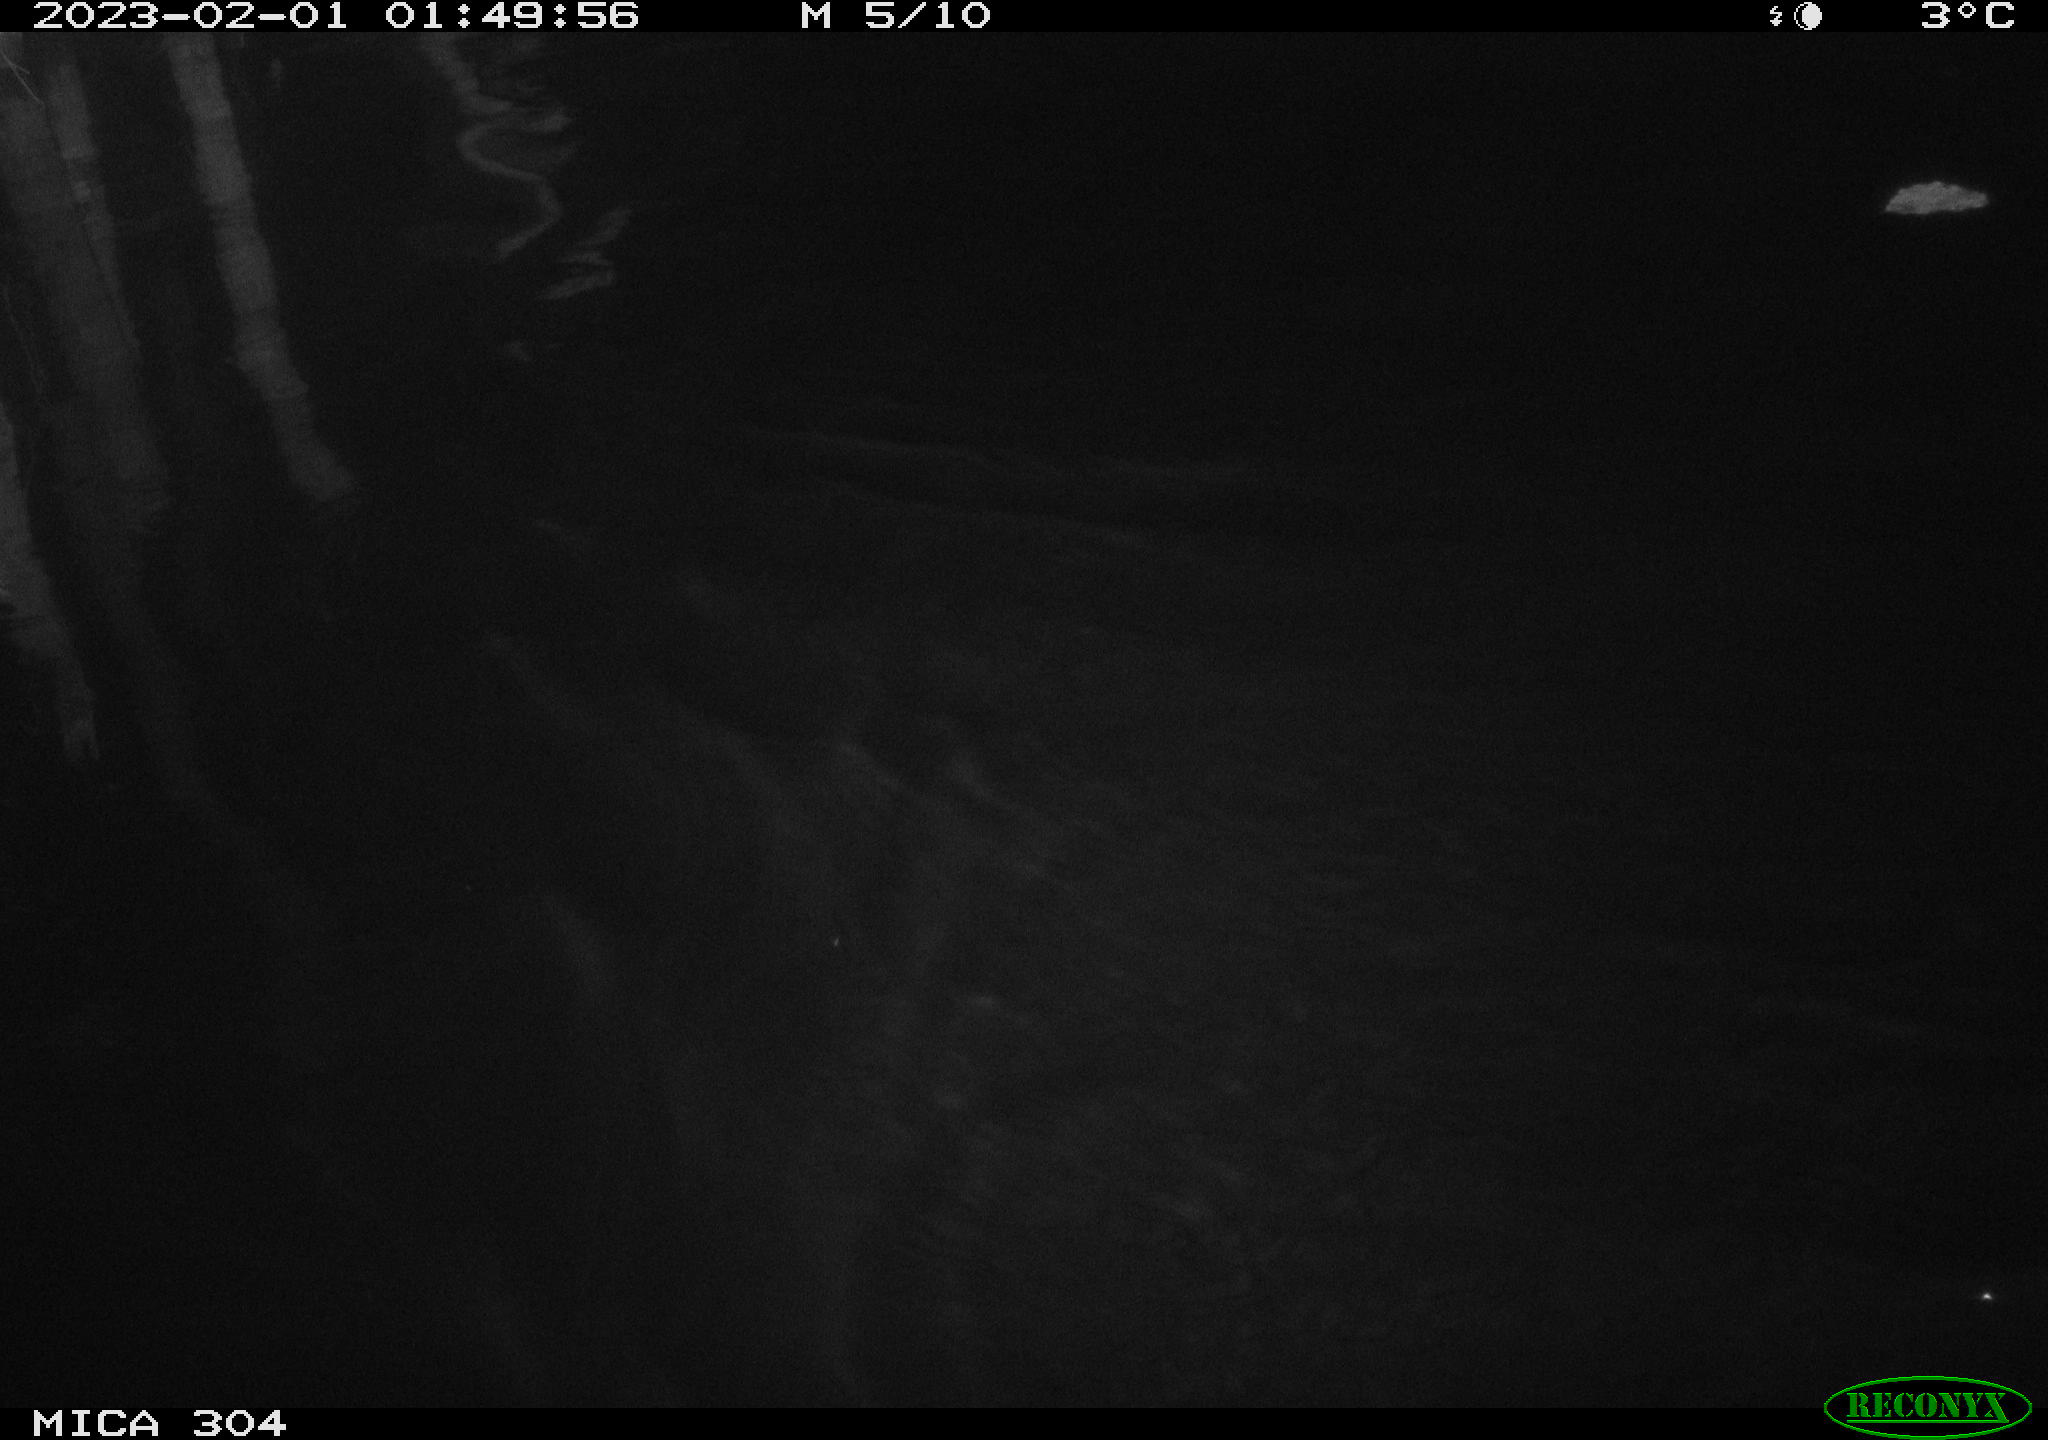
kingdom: Animalia
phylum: Chordata
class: Mammalia
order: Rodentia
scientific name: Rodentia
